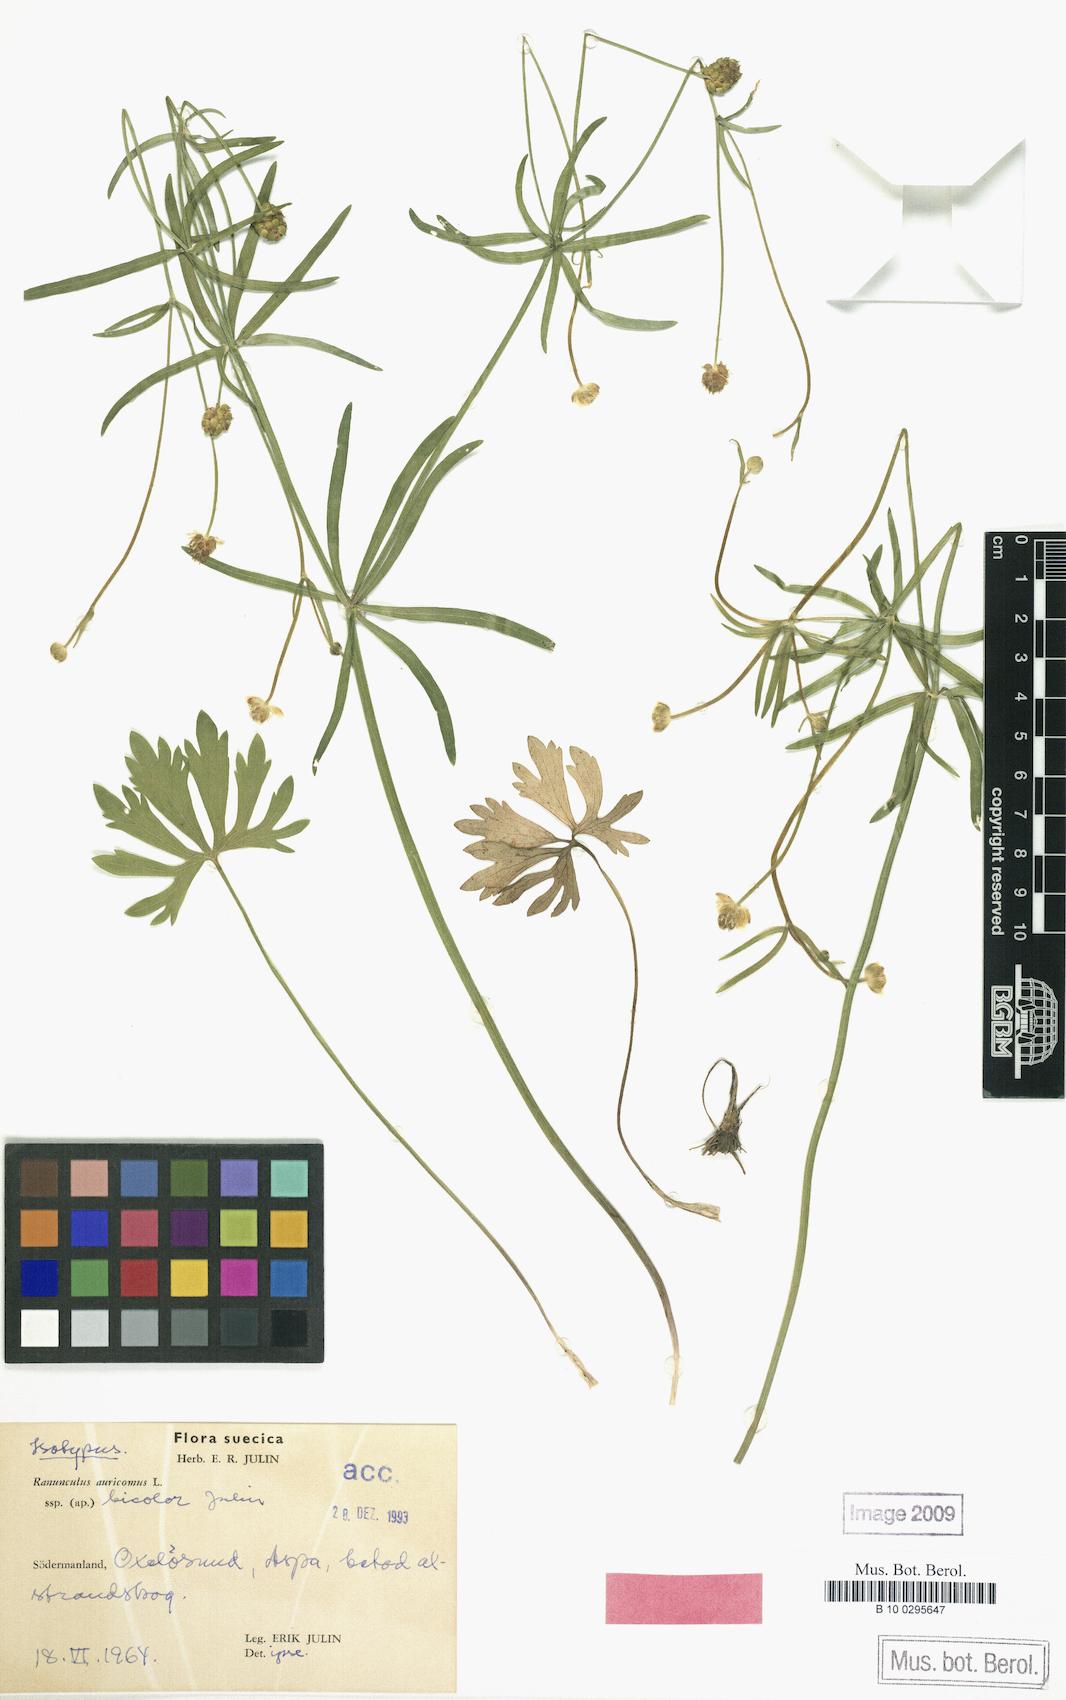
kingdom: Plantae
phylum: Tracheophyta
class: Magnoliopsida
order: Ranunculales
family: Ranunculaceae
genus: Ranunculus
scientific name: Ranunculus bicolor
